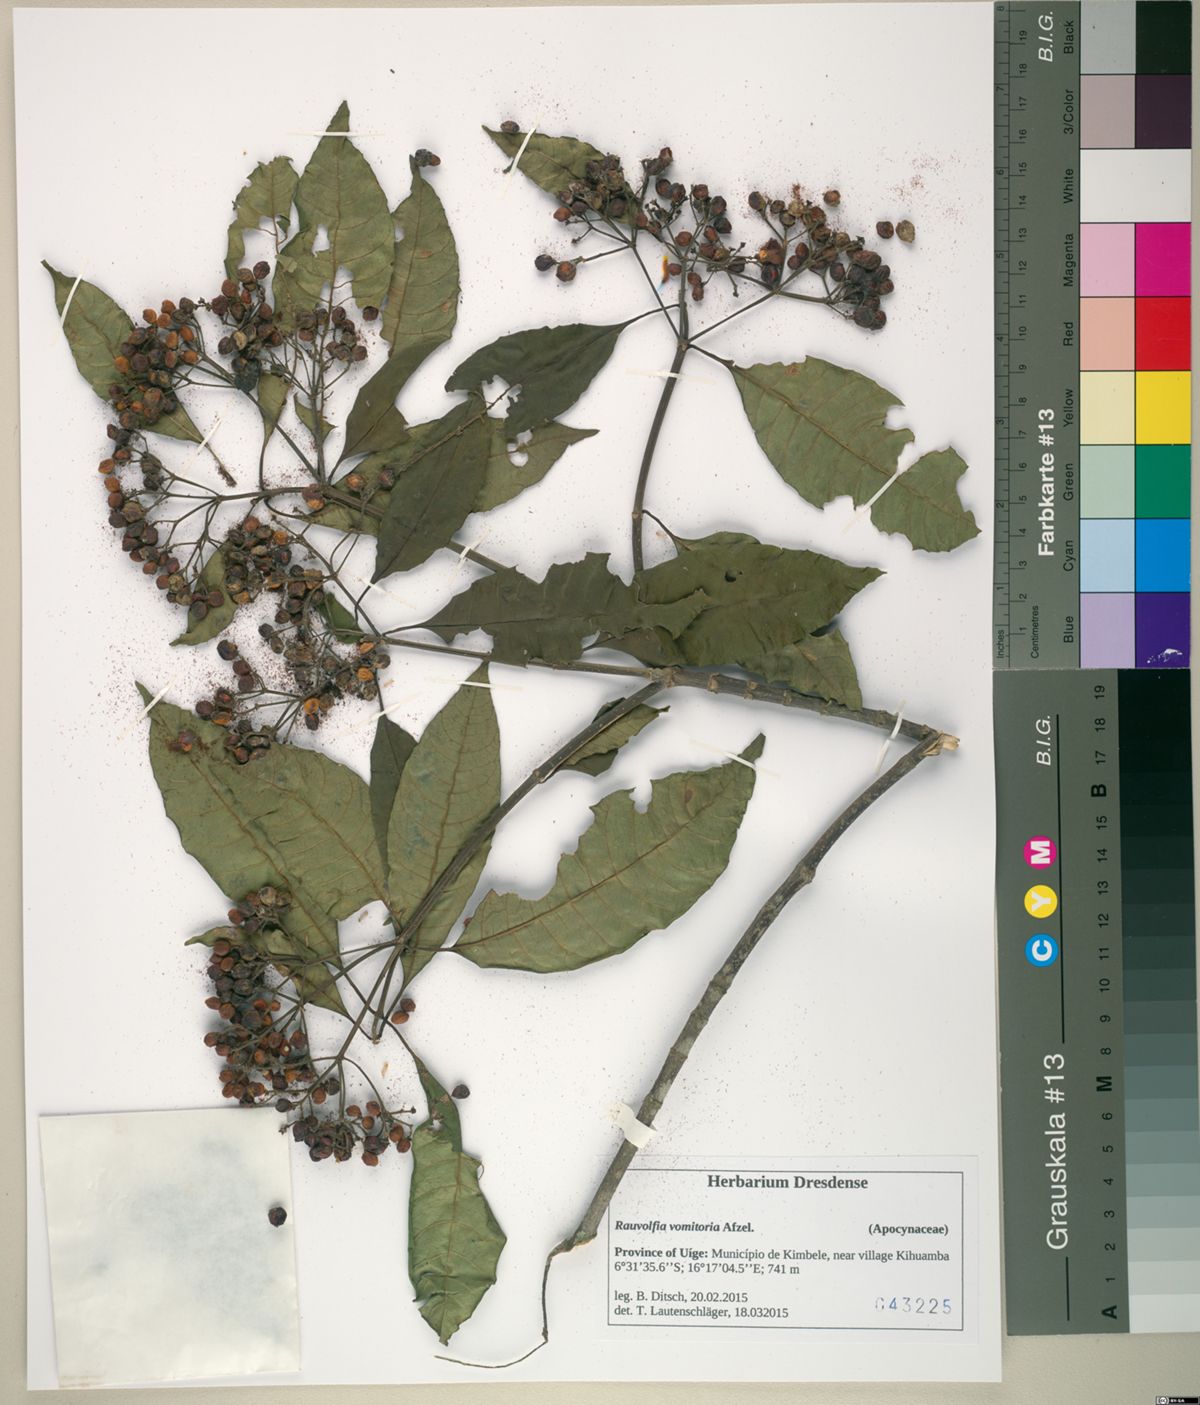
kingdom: Plantae
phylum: Tracheophyta
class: Magnoliopsida
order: Gentianales
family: Apocynaceae
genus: Rauvolfia
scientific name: Rauvolfia vomitoria
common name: Poison devil's-pepper
